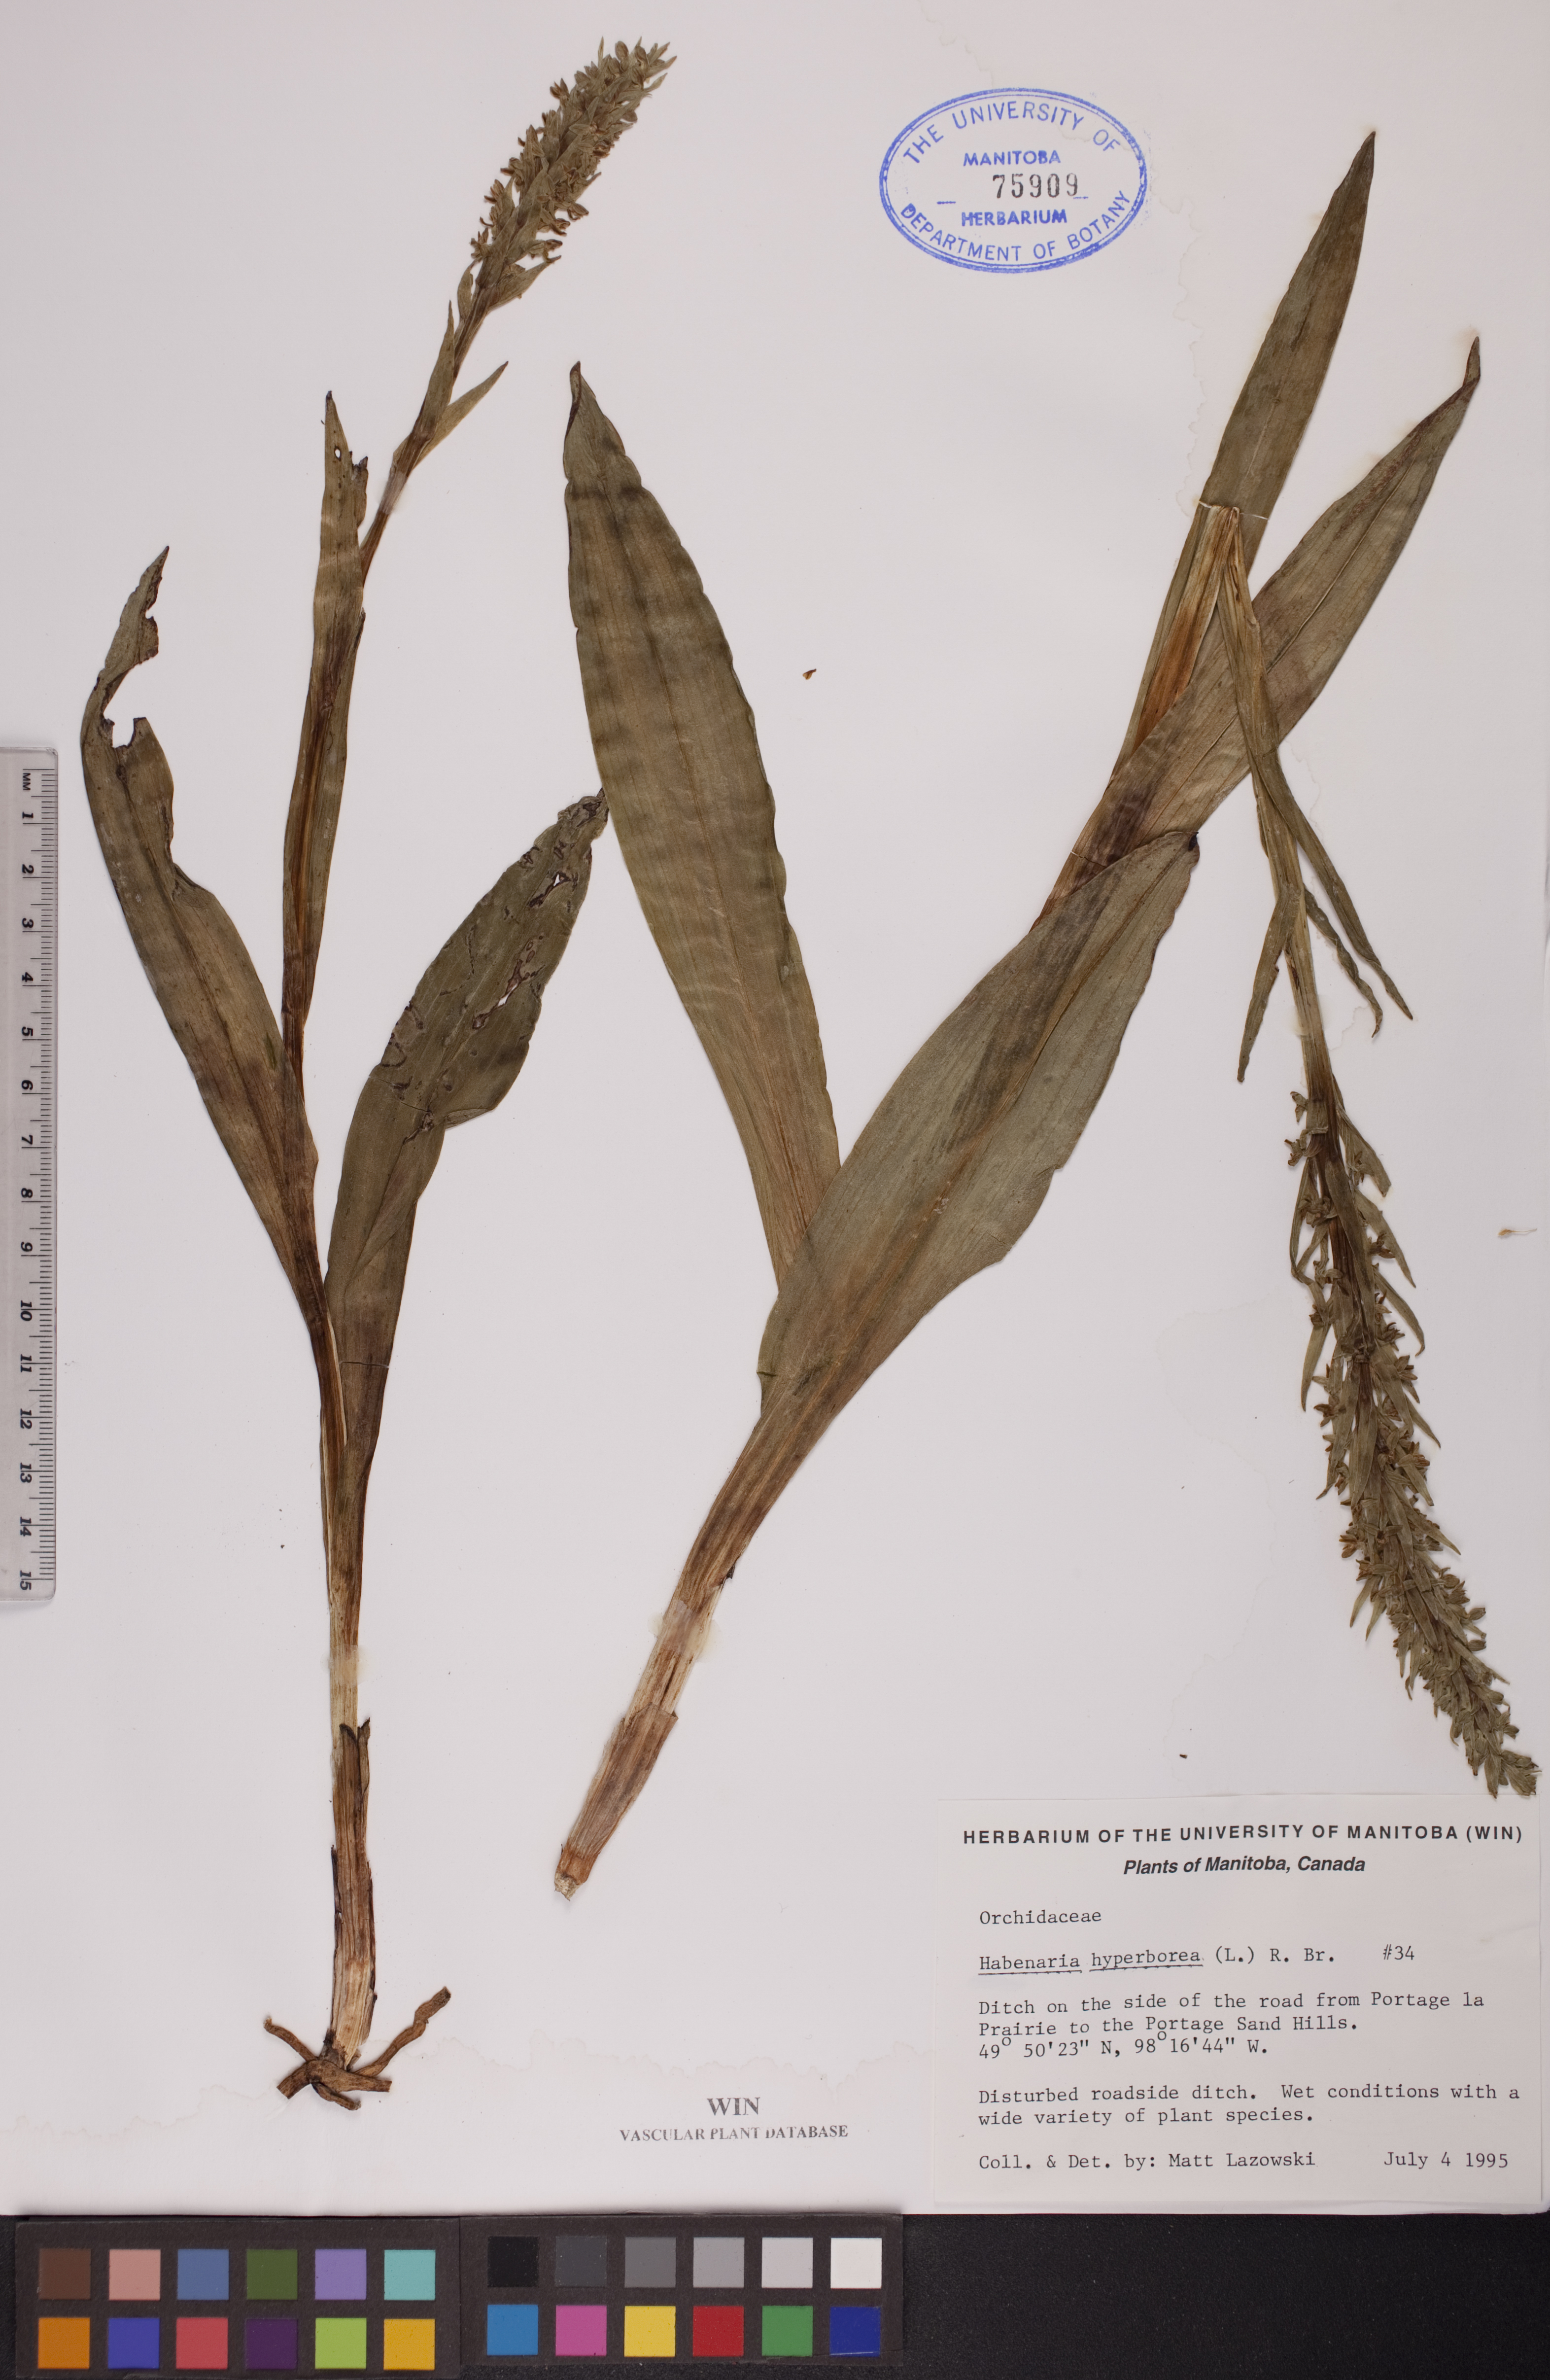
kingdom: Plantae
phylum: Tracheophyta
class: Liliopsida
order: Asparagales
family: Orchidaceae
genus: Platanthera
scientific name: Platanthera hyperborea
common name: Northern green orchid
